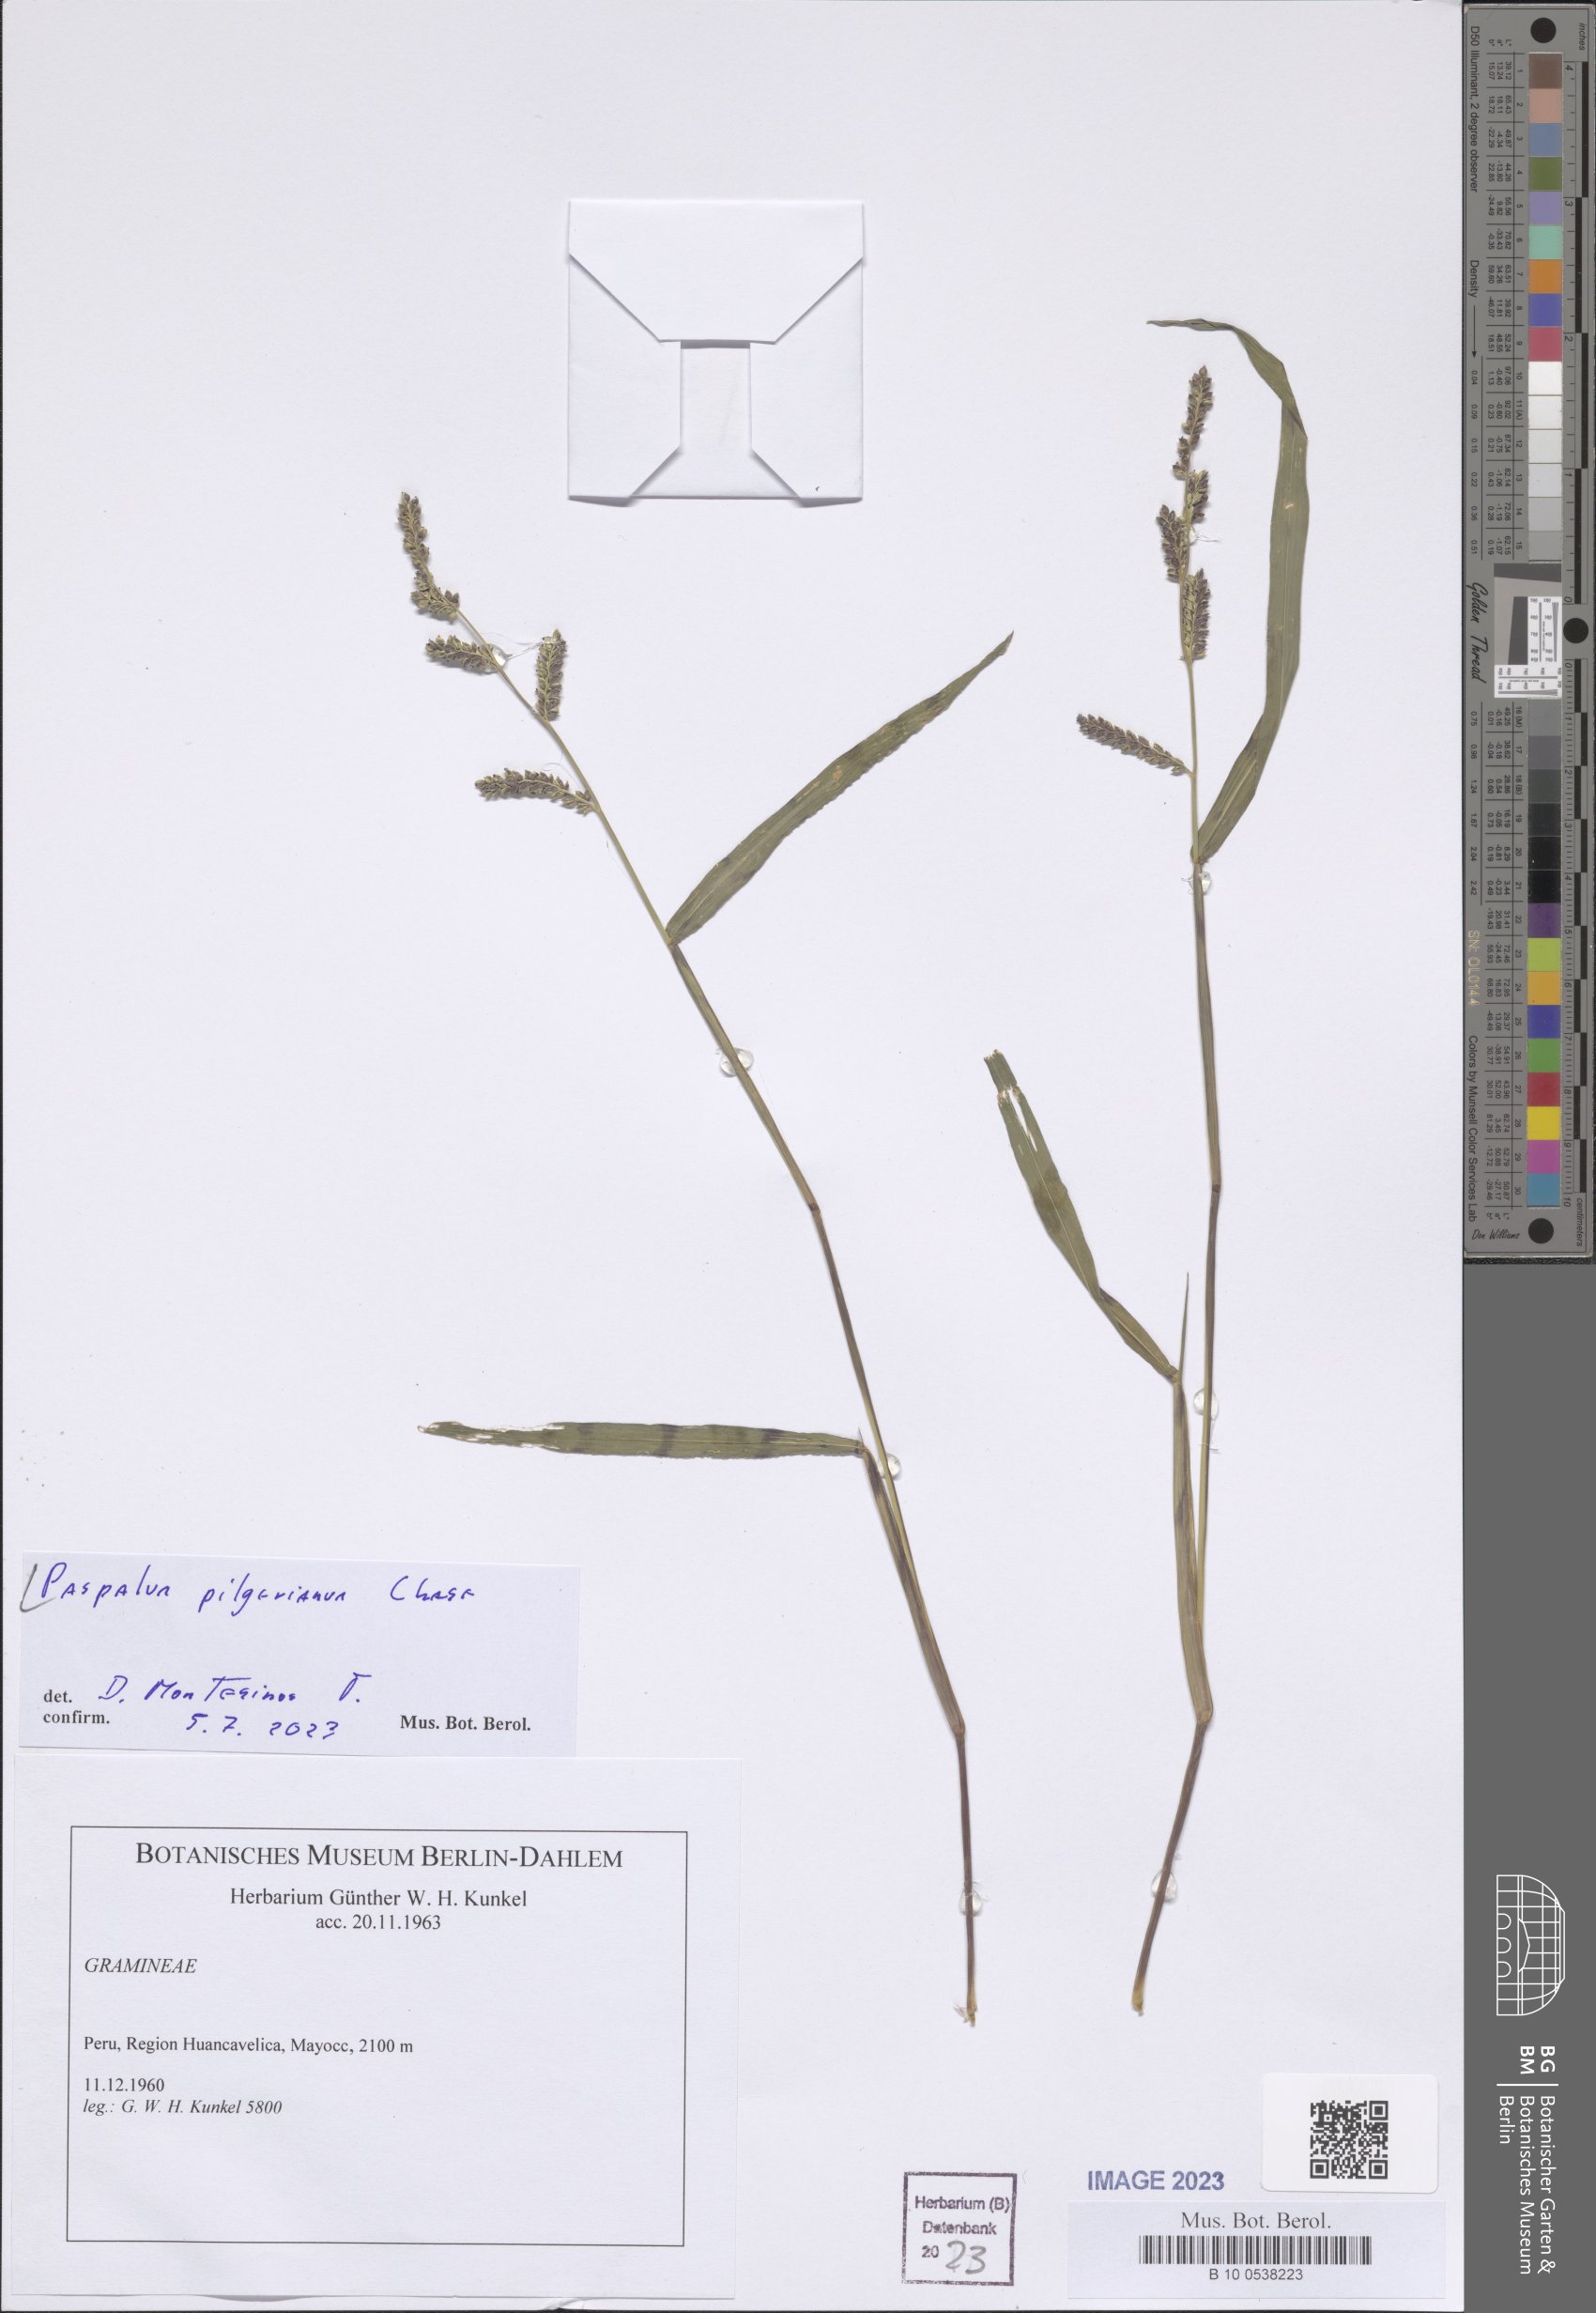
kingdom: Plantae
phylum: Tracheophyta
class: Liliopsida
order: Poales
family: Poaceae
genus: Paspalum
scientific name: Paspalum pilgerianum
